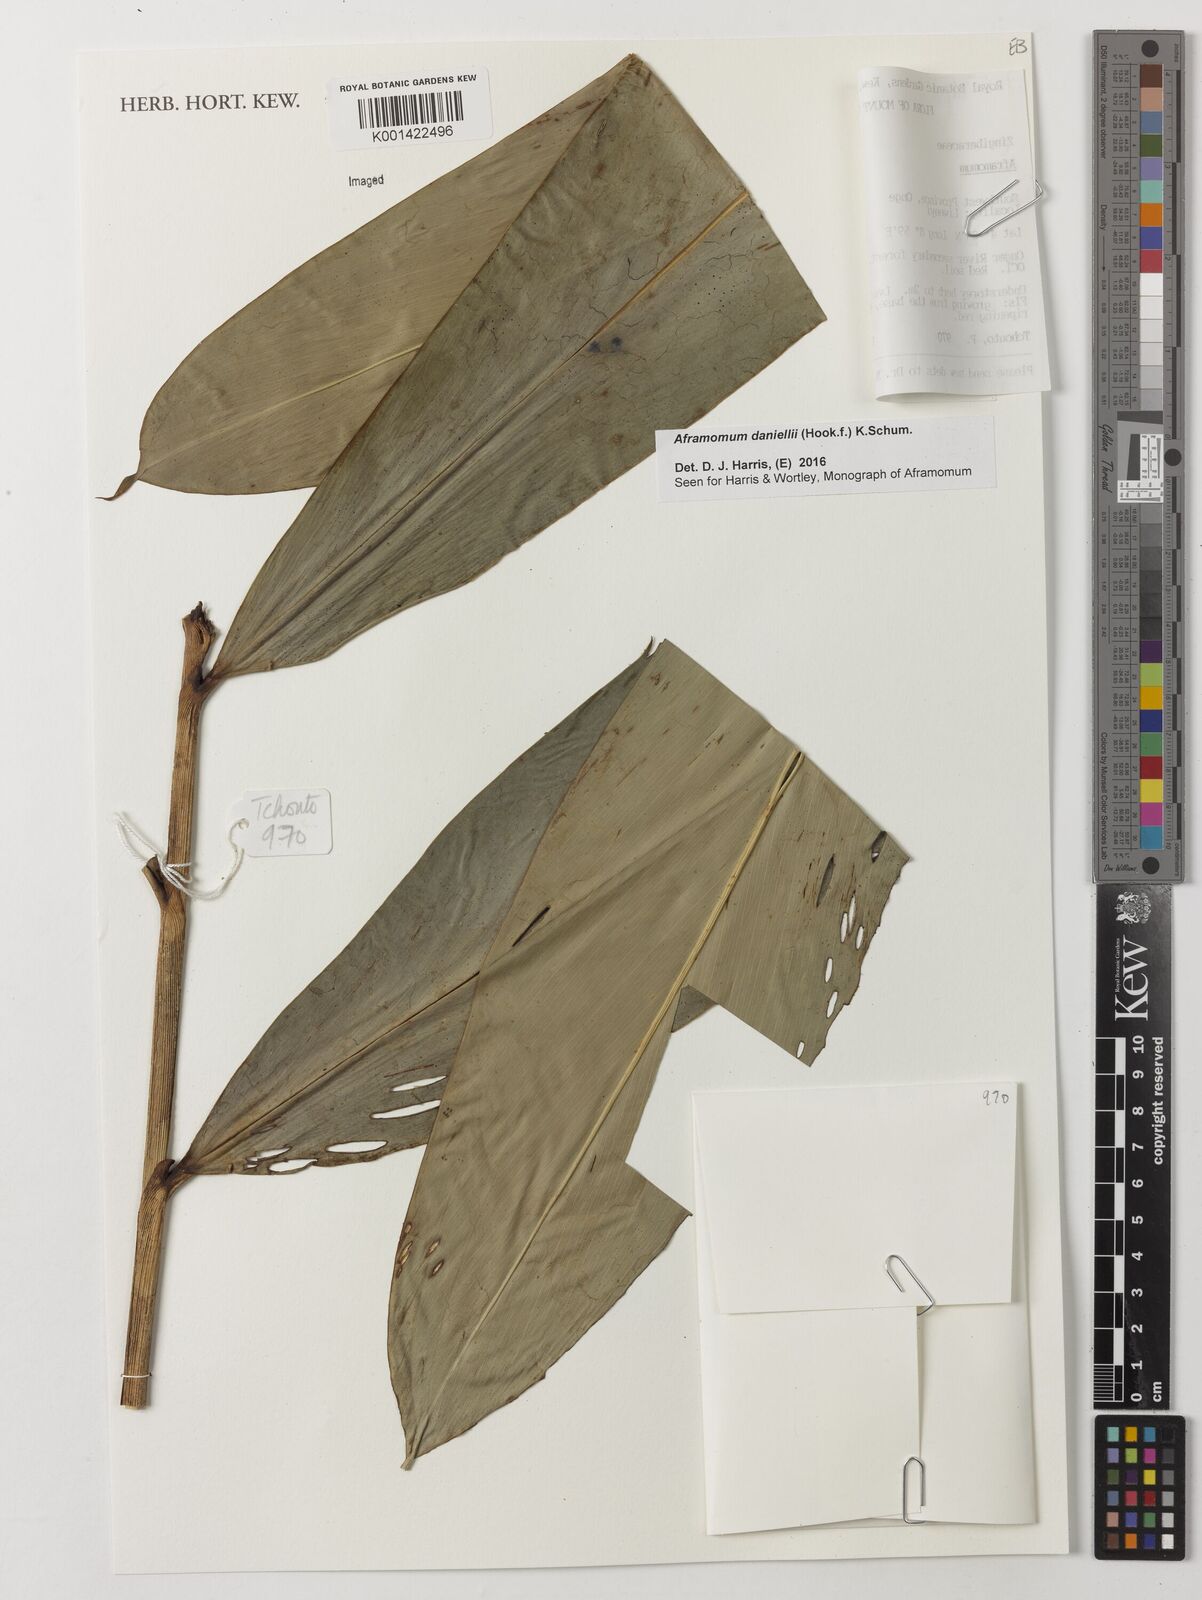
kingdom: Plantae
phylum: Tracheophyta
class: Liliopsida
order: Zingiberales
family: Zingiberaceae
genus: Aframomum
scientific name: Aframomum daniellii
